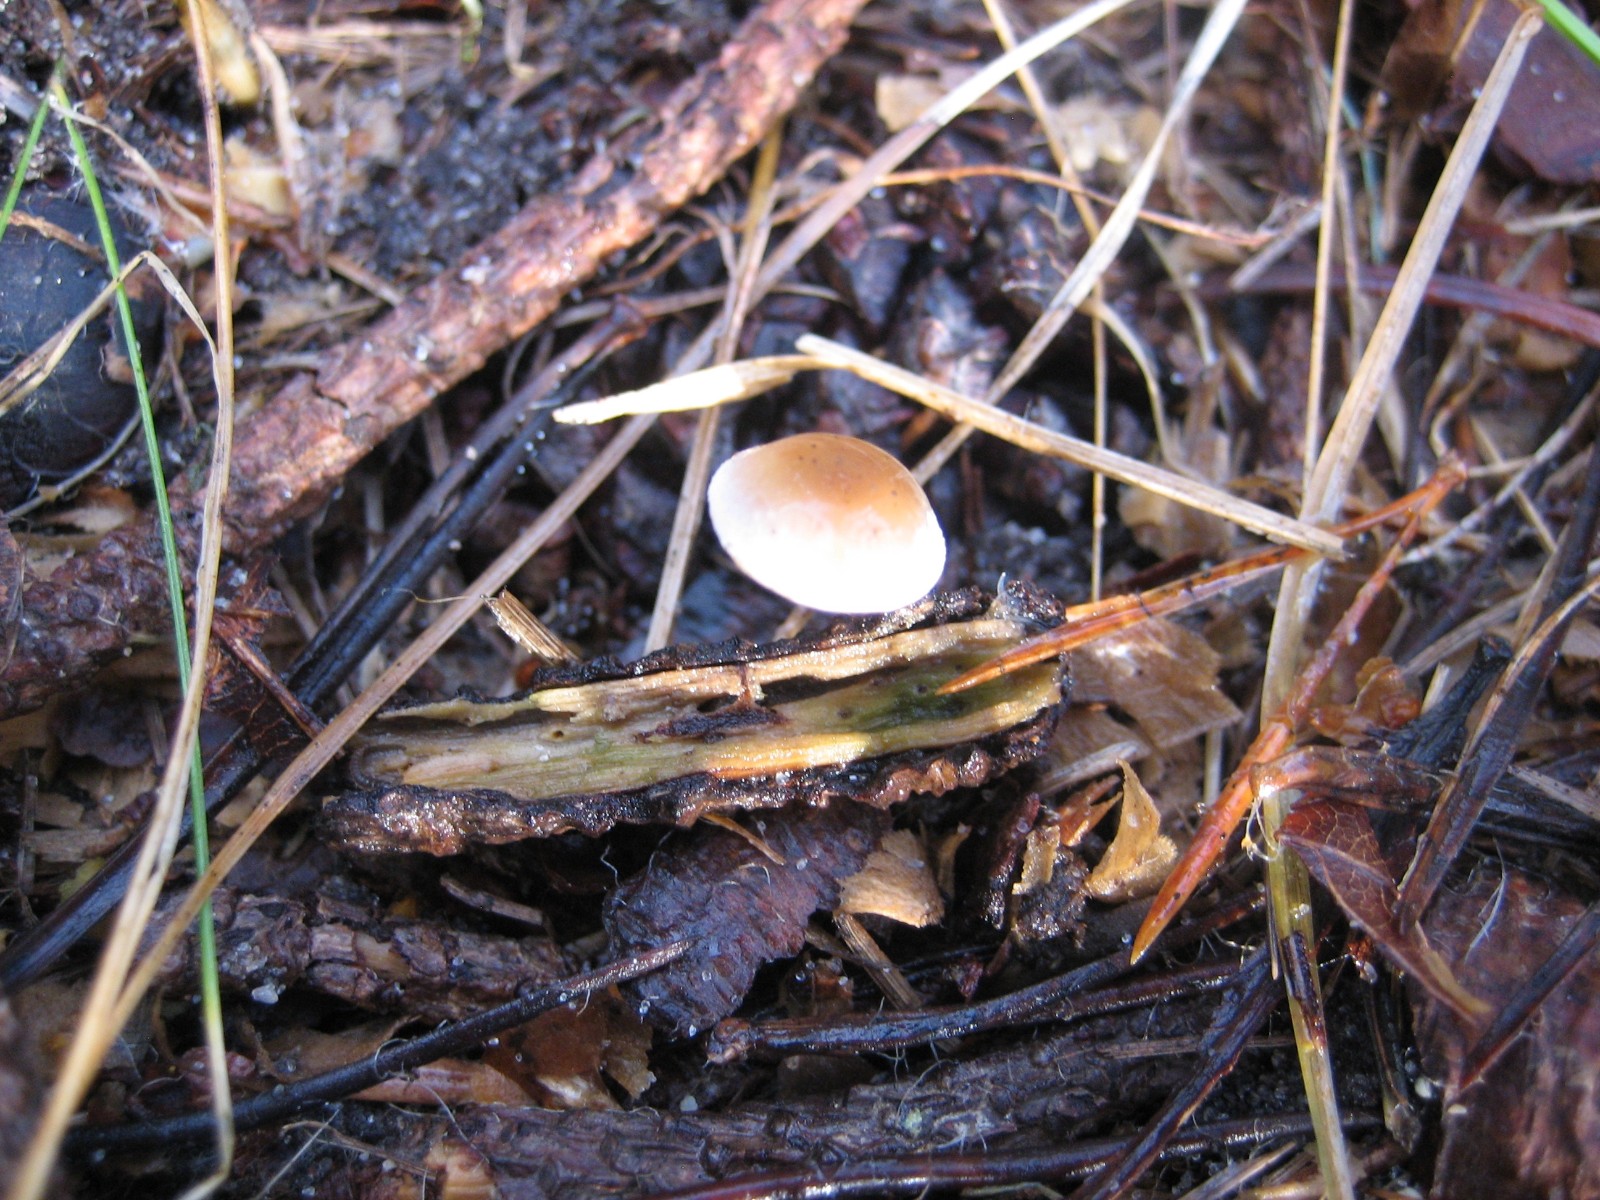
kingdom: Fungi
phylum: Basidiomycota
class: Agaricomycetes
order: Agaricales
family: Marasmiaceae
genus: Baeospora
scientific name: Baeospora myosura
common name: koglebruskhat
